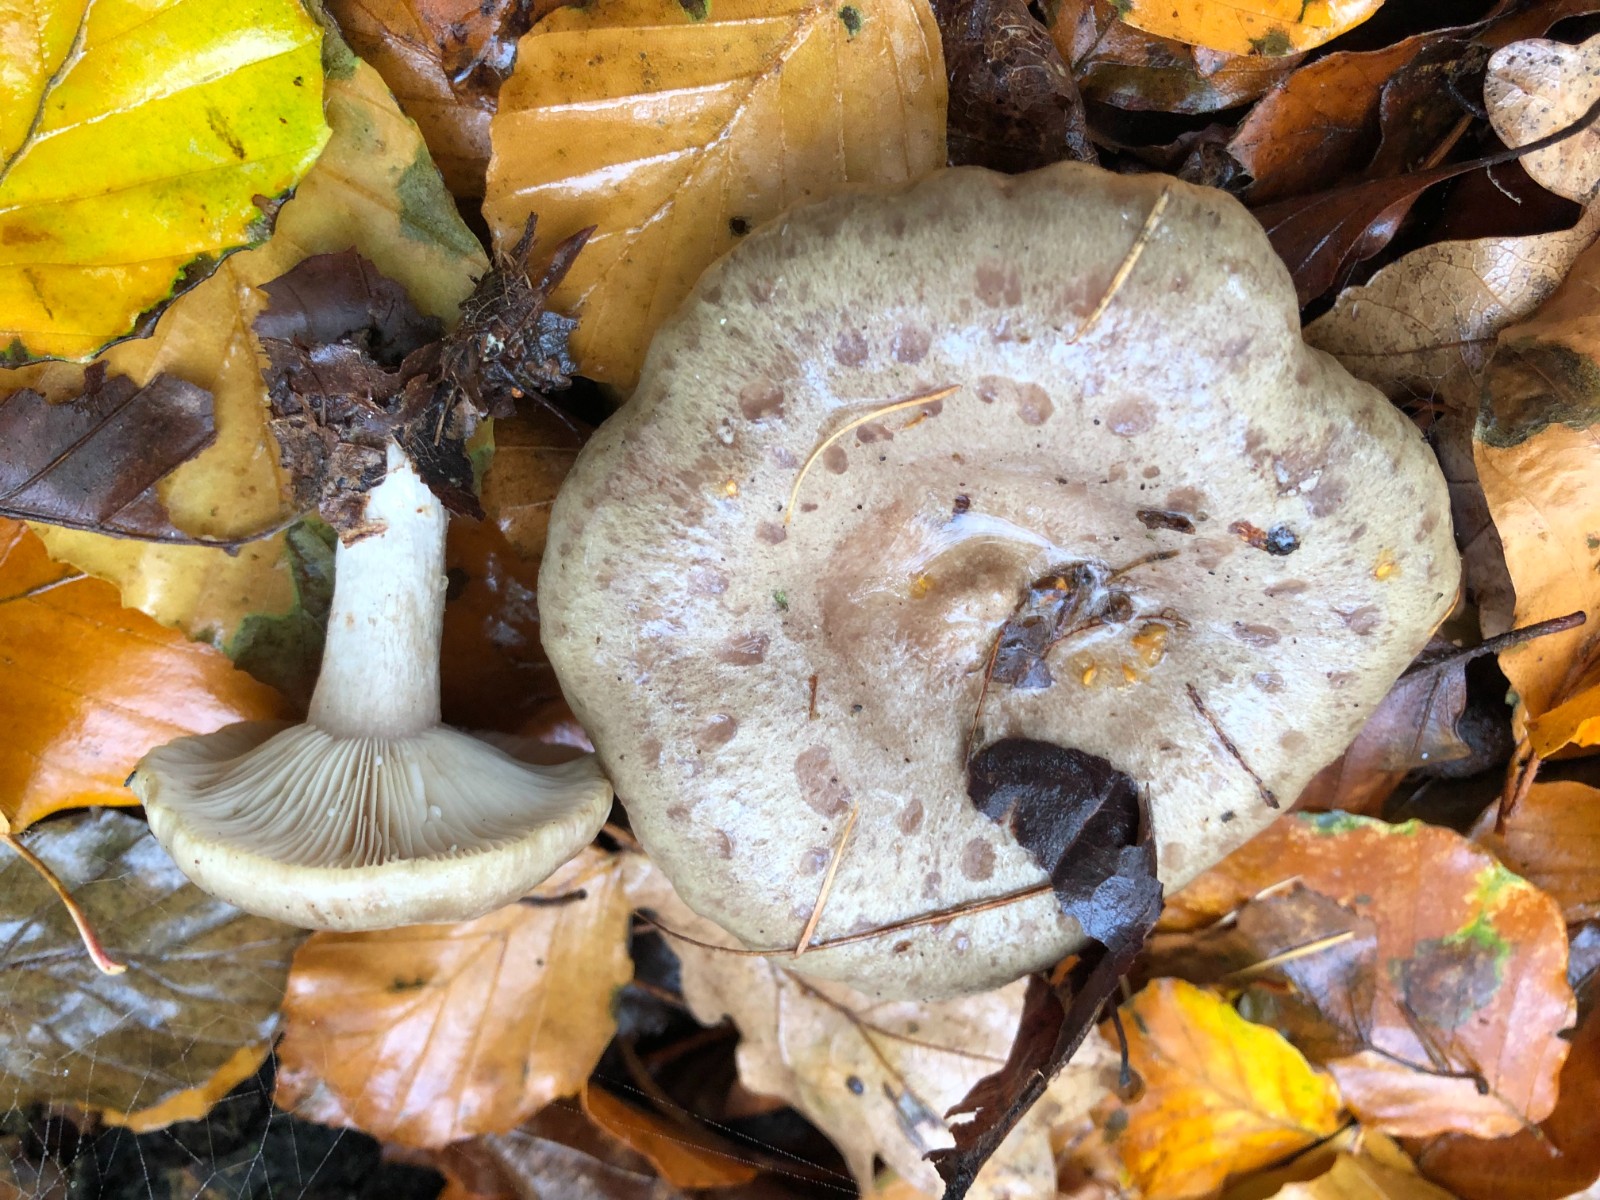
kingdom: Fungi
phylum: Basidiomycota
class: Agaricomycetes
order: Russulales
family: Russulaceae
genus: Lactarius
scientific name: Lactarius blennius
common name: dråbeplettet mælkehat
